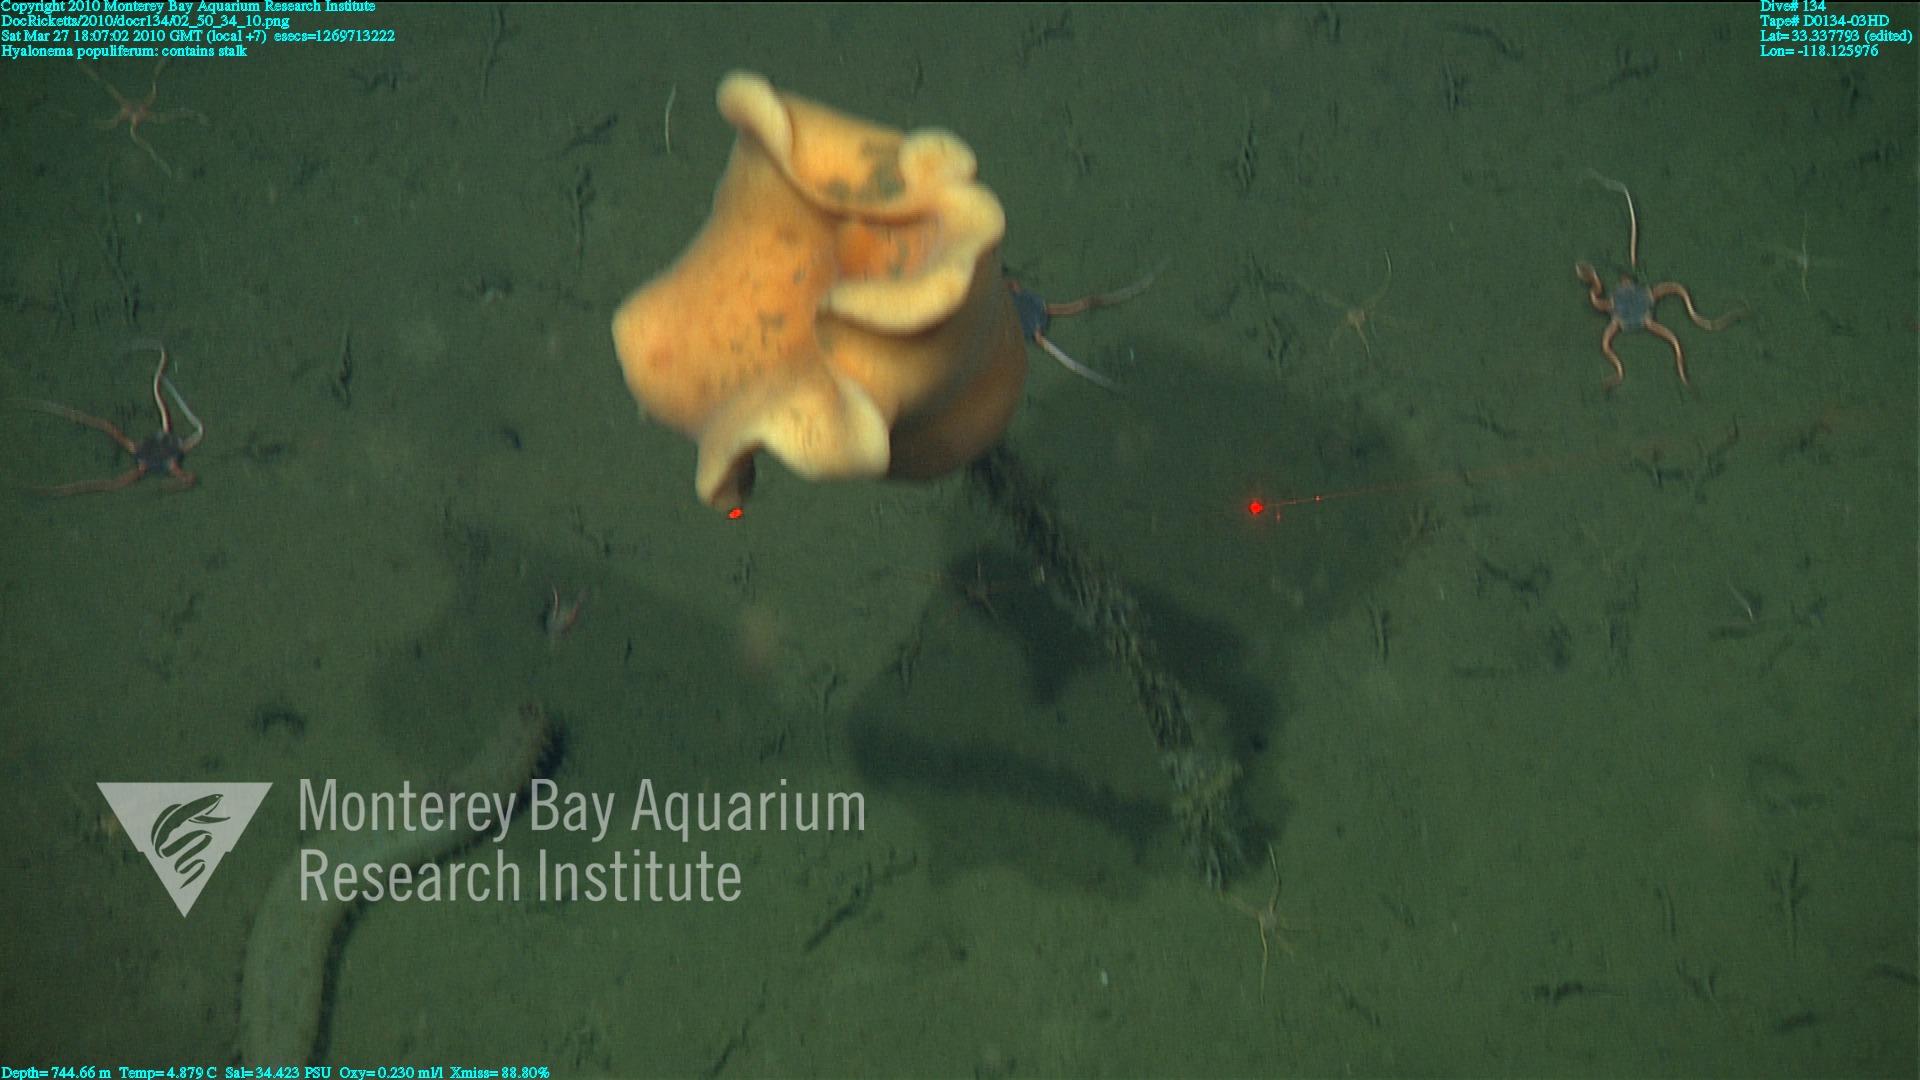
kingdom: Animalia
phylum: Porifera
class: Hexactinellida
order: Amphidiscosida
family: Hyalonematidae
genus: Hyalonema
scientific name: Hyalonema populiferum
